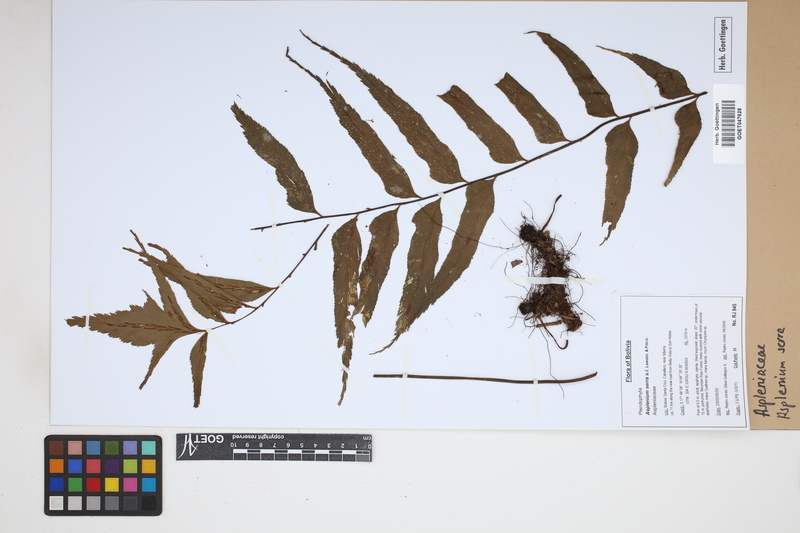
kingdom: Plantae
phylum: Tracheophyta
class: Polypodiopsida
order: Polypodiales
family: Aspleniaceae
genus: Asplenium
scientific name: Asplenium serra
